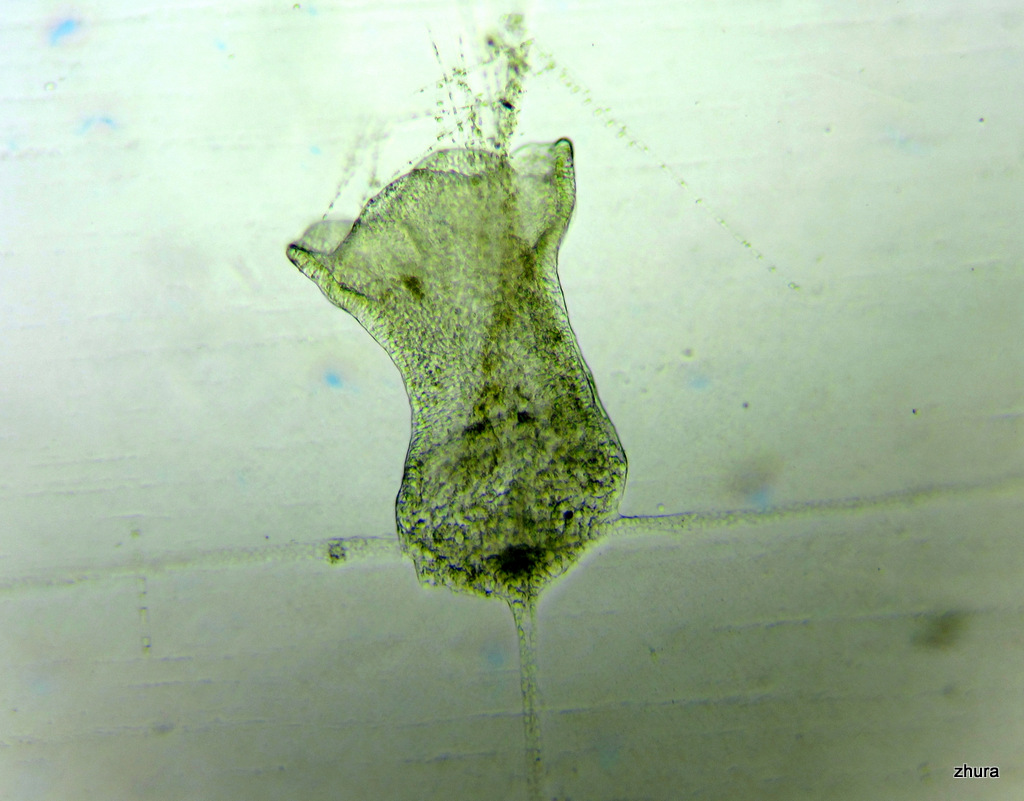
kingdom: Animalia
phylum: Cnidaria
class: Hydrozoa
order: Leptothecata
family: Campanulariidae
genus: Obelia
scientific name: Obelia longissima
